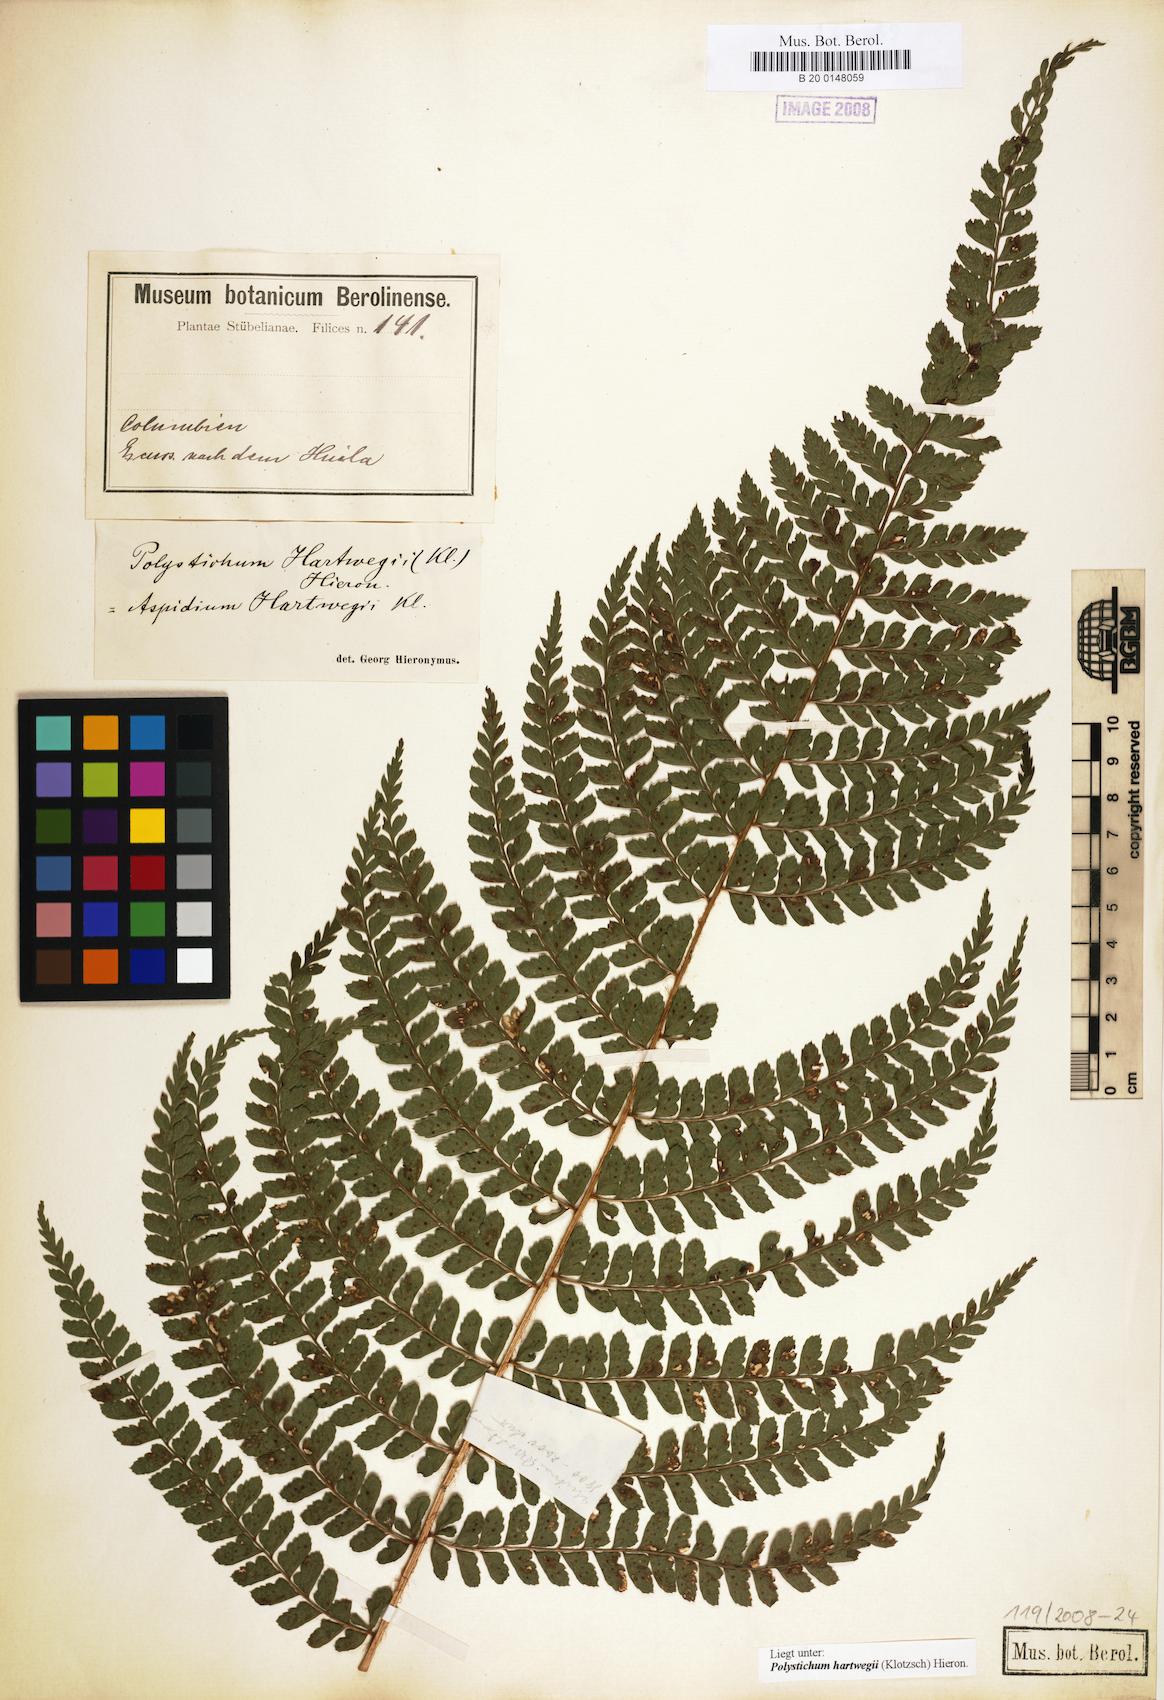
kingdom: Plantae
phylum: Tracheophyta
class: Polypodiopsida
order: Polypodiales
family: Dryopteridaceae
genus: Polystichum
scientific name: Polystichum hartwegii
